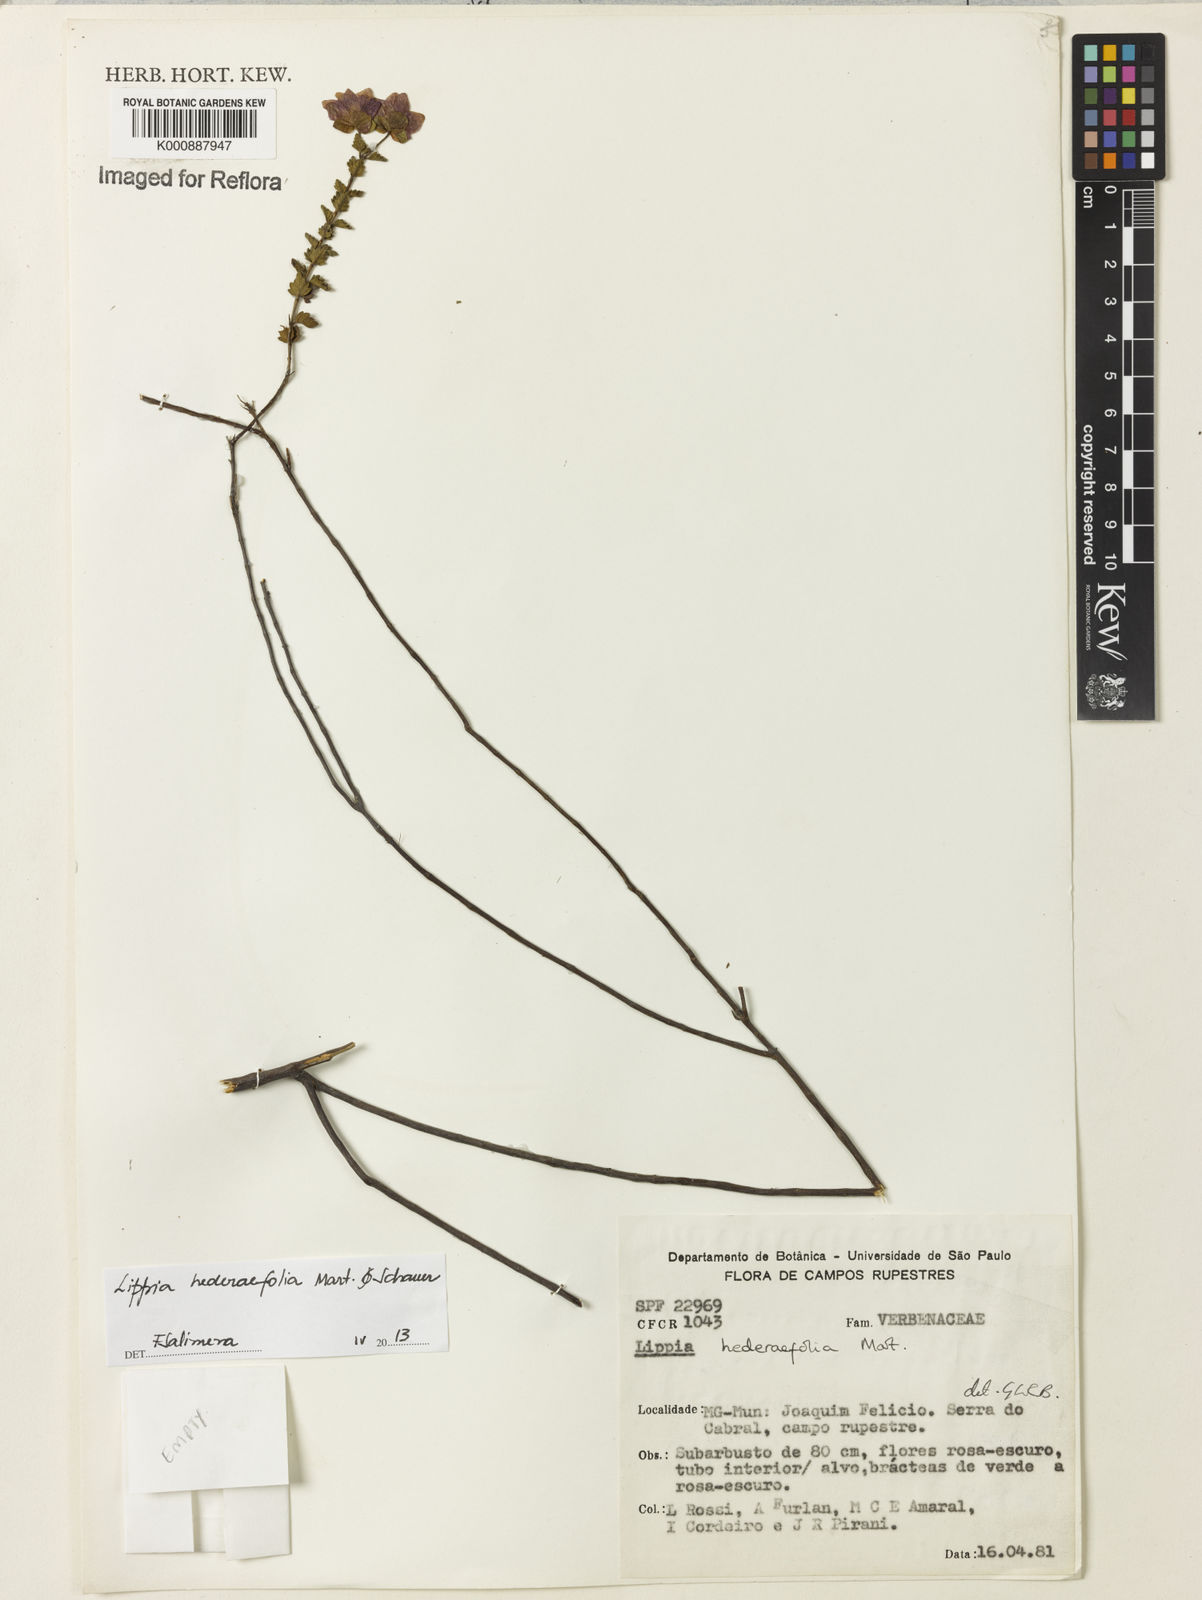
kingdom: Plantae
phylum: Tracheophyta
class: Magnoliopsida
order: Lamiales
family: Verbenaceae
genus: Lippia
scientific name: Lippia hederifolia
